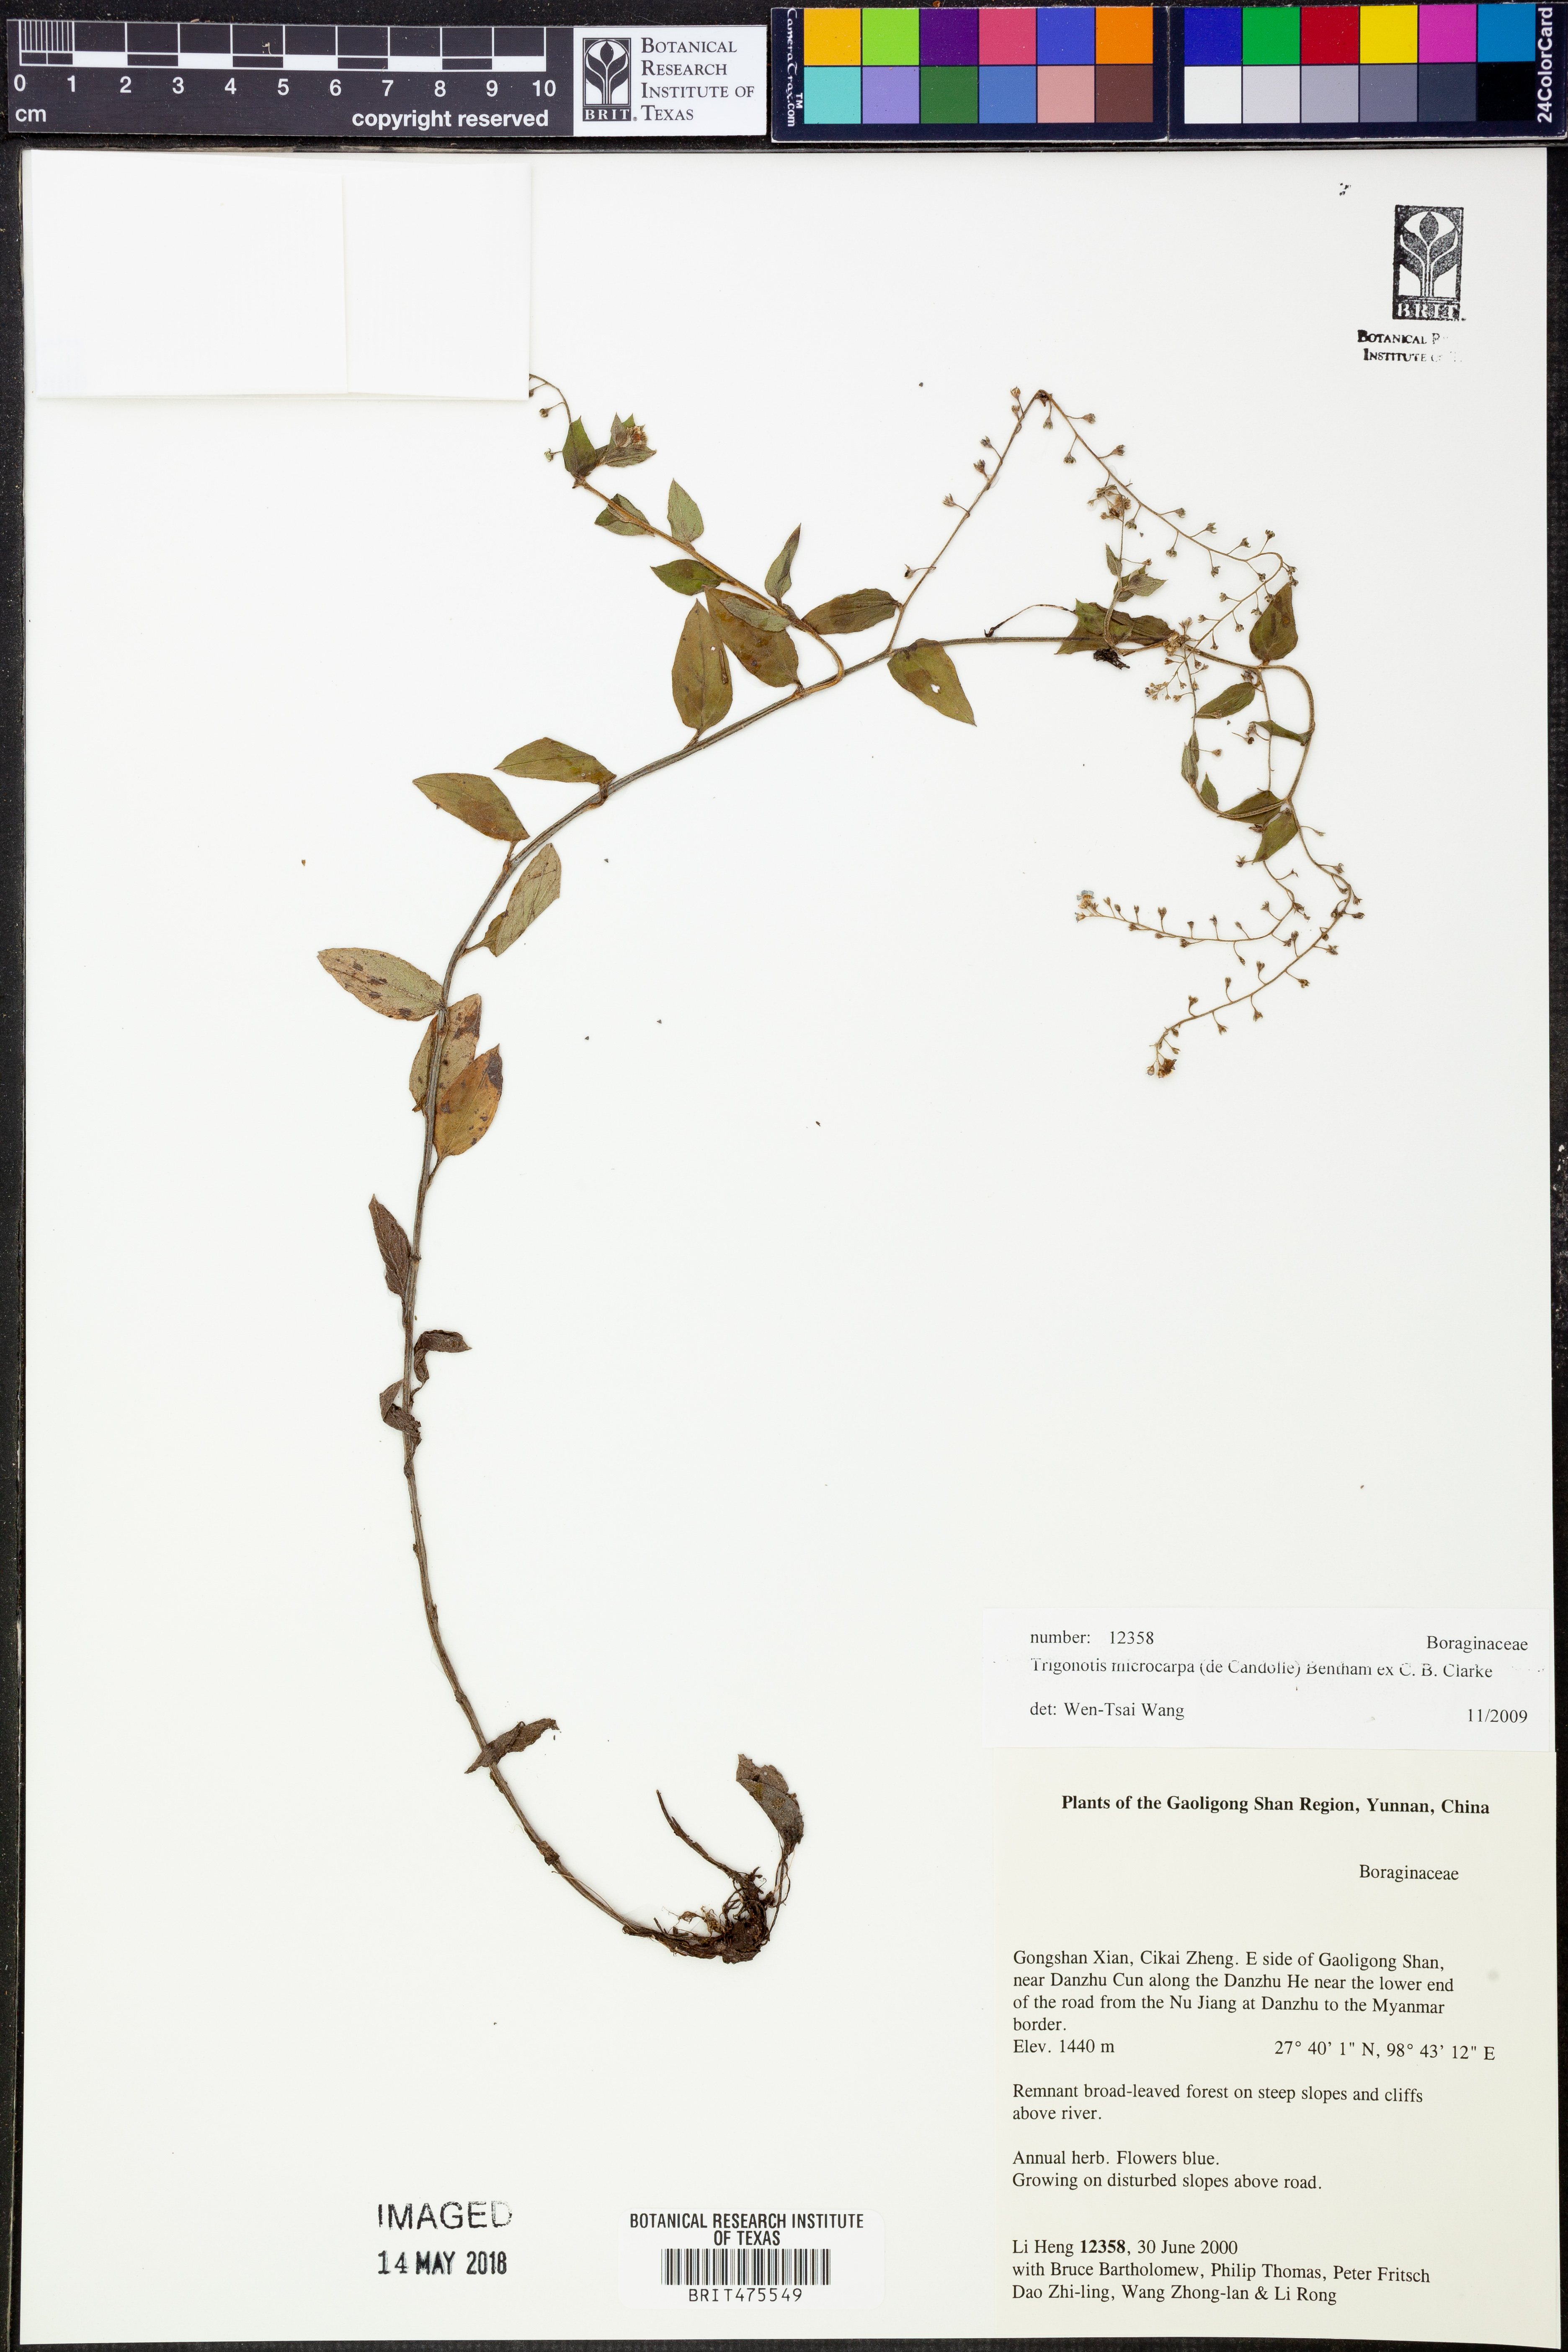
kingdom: Plantae
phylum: Tracheophyta
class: Magnoliopsida
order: Boraginales
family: Boraginaceae
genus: Trigonotis
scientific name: Trigonotis microcarpa
